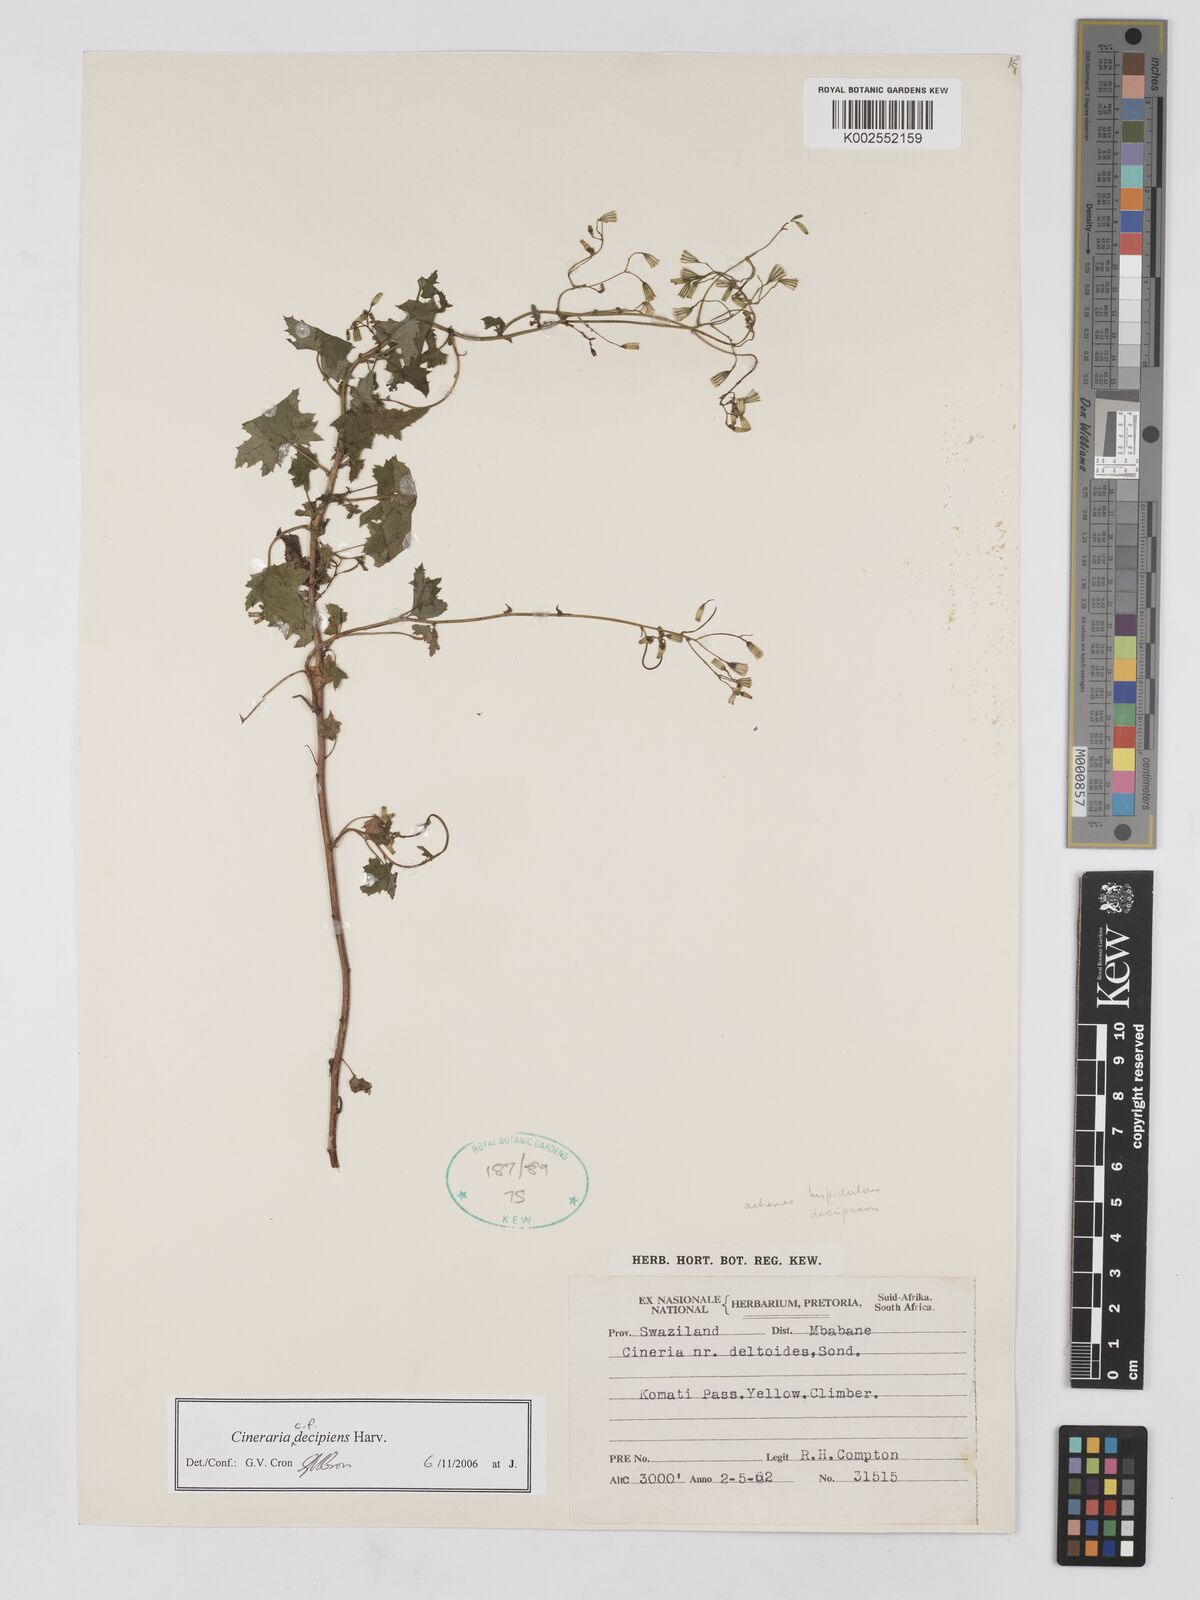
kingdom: Plantae
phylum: Tracheophyta
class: Magnoliopsida
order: Asterales
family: Asteraceae
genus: Cineraria
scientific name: Cineraria decipiens
